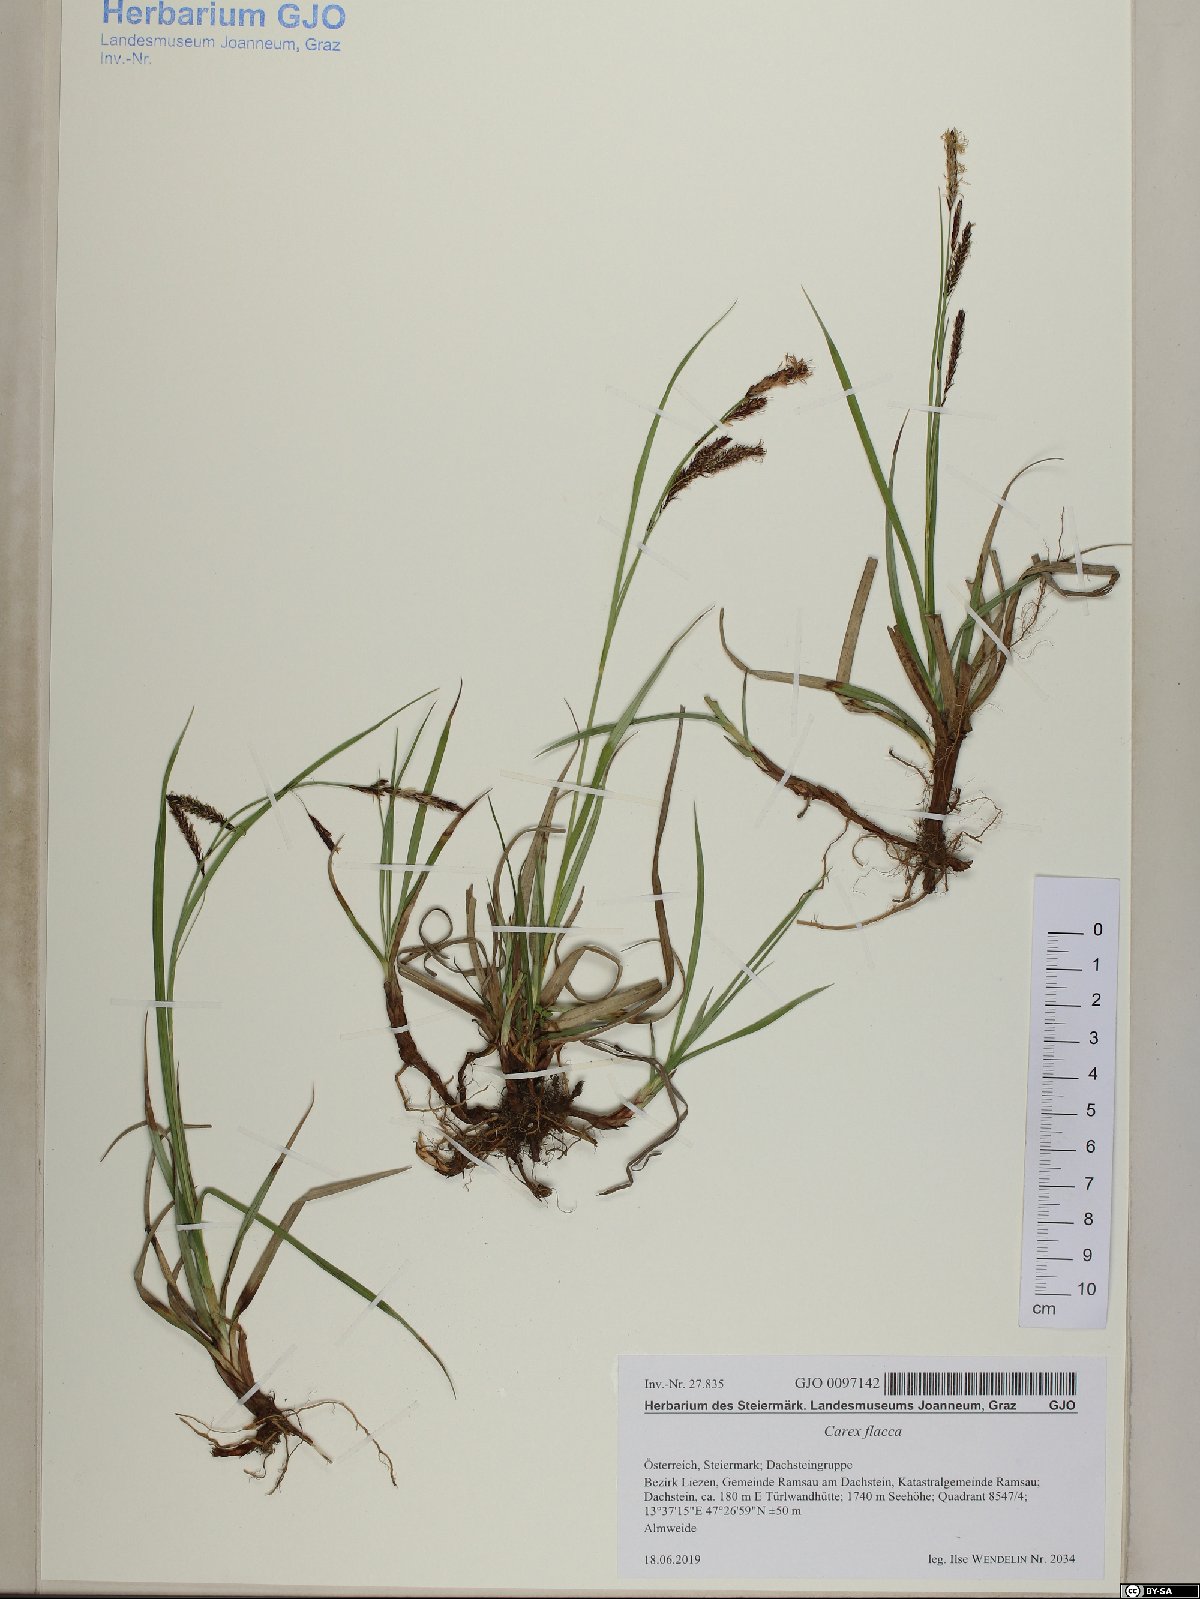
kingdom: Plantae
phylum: Tracheophyta
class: Liliopsida
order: Poales
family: Cyperaceae
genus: Carex
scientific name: Carex flacca
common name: Glaucous sedge
